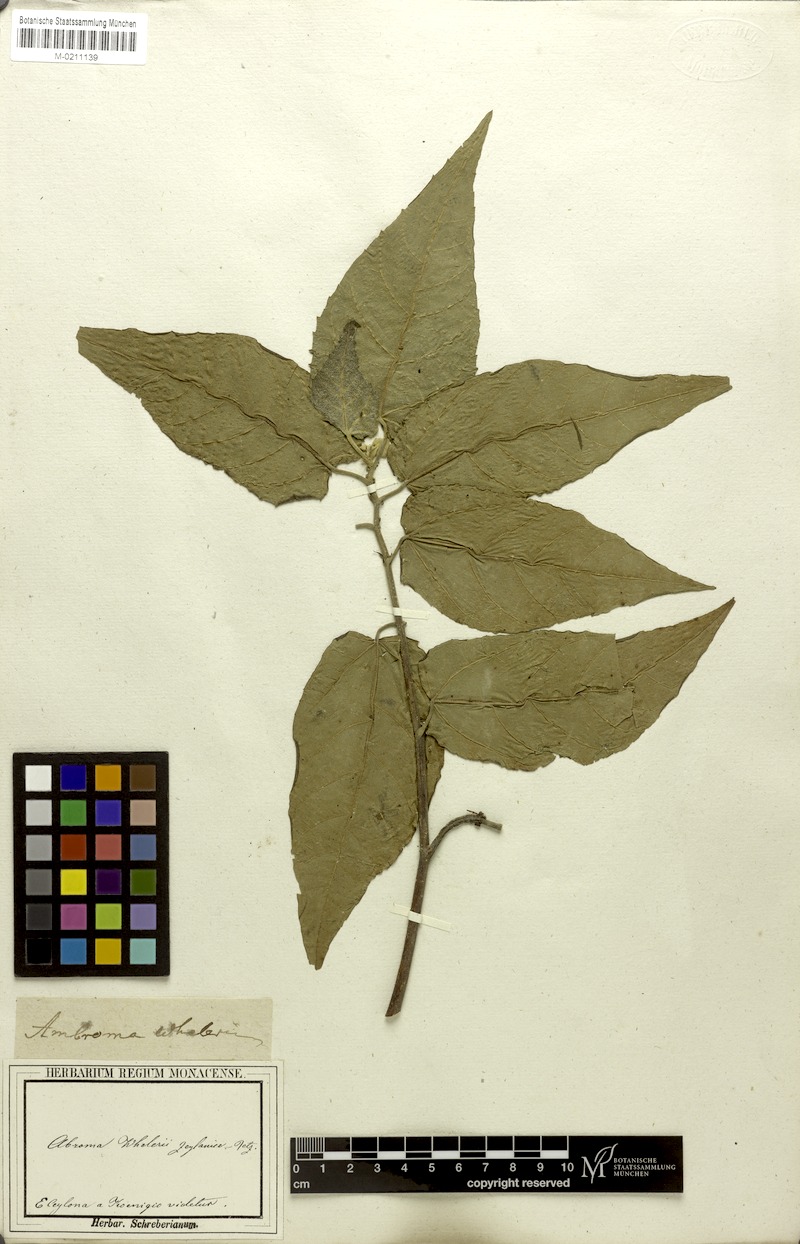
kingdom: Plantae
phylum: Tracheophyta
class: Magnoliopsida
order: Malvales
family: Malvaceae
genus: Abroma
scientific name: Abroma augustum
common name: Devil's-cotton
